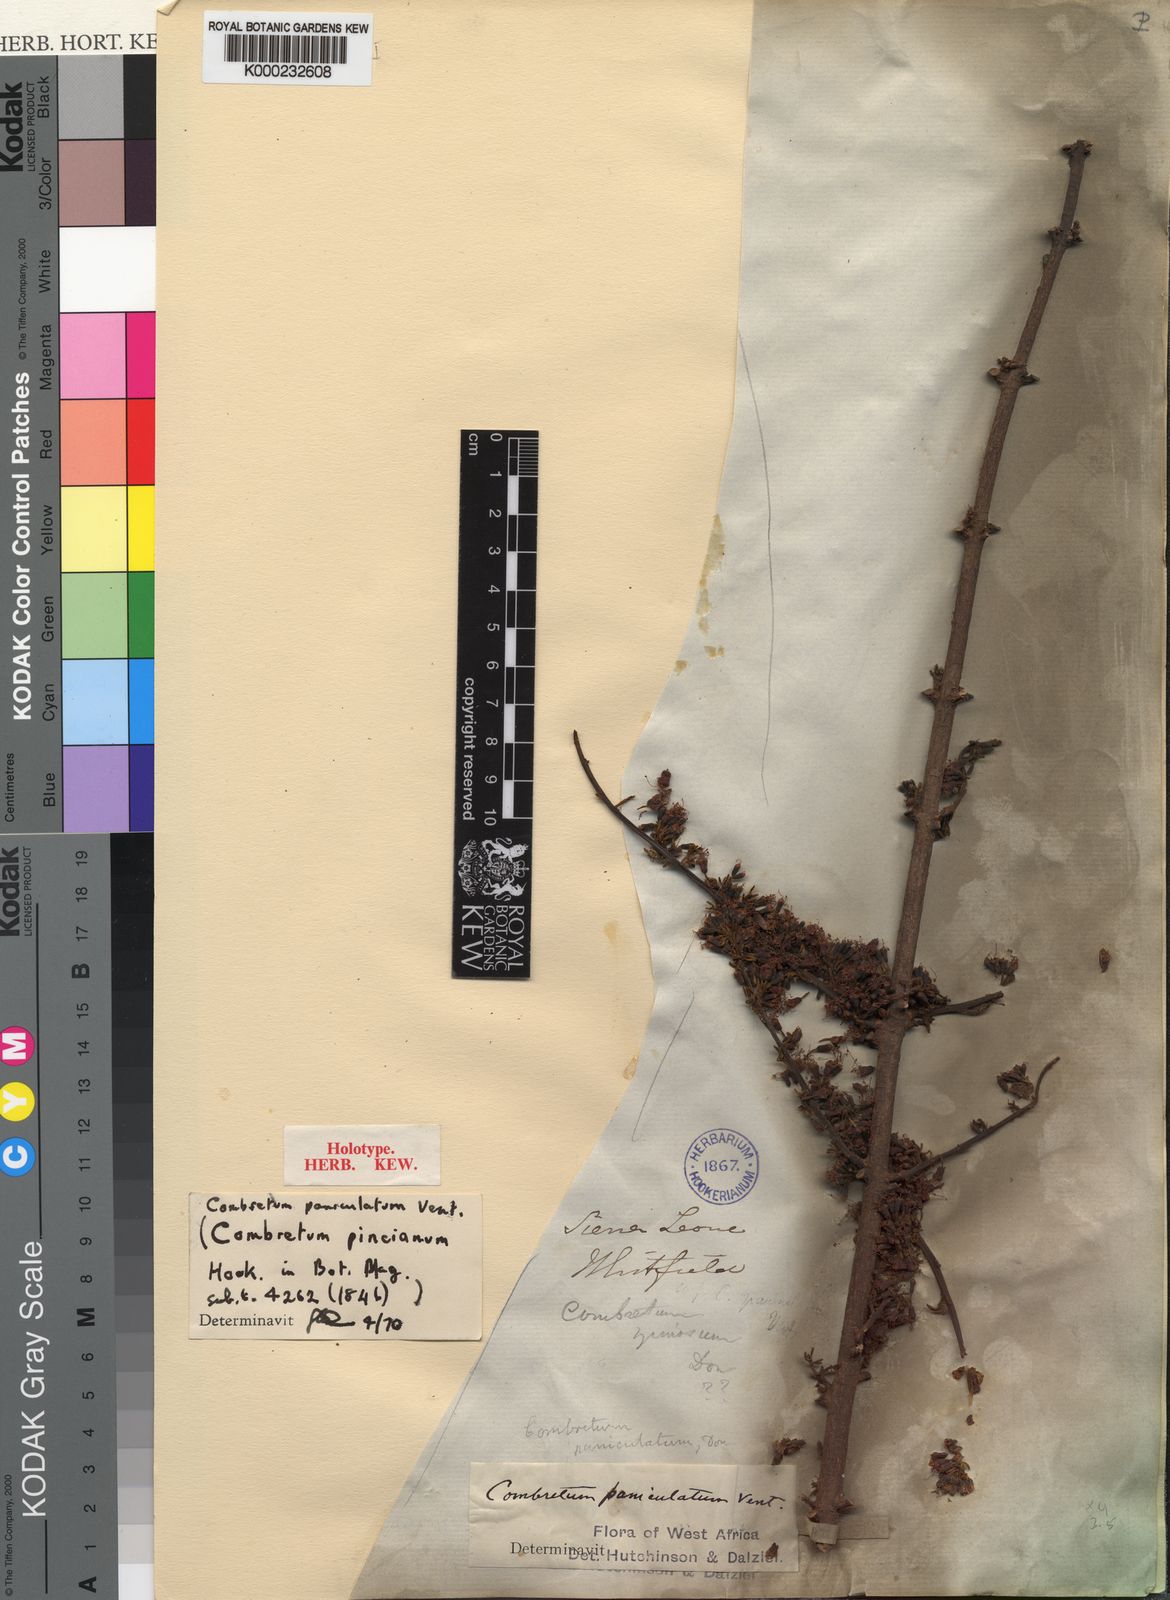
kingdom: Plantae
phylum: Tracheophyta
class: Magnoliopsida
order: Myrtales
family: Combretaceae
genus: Combretum
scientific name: Combretum paniculatum
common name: Fire vine
